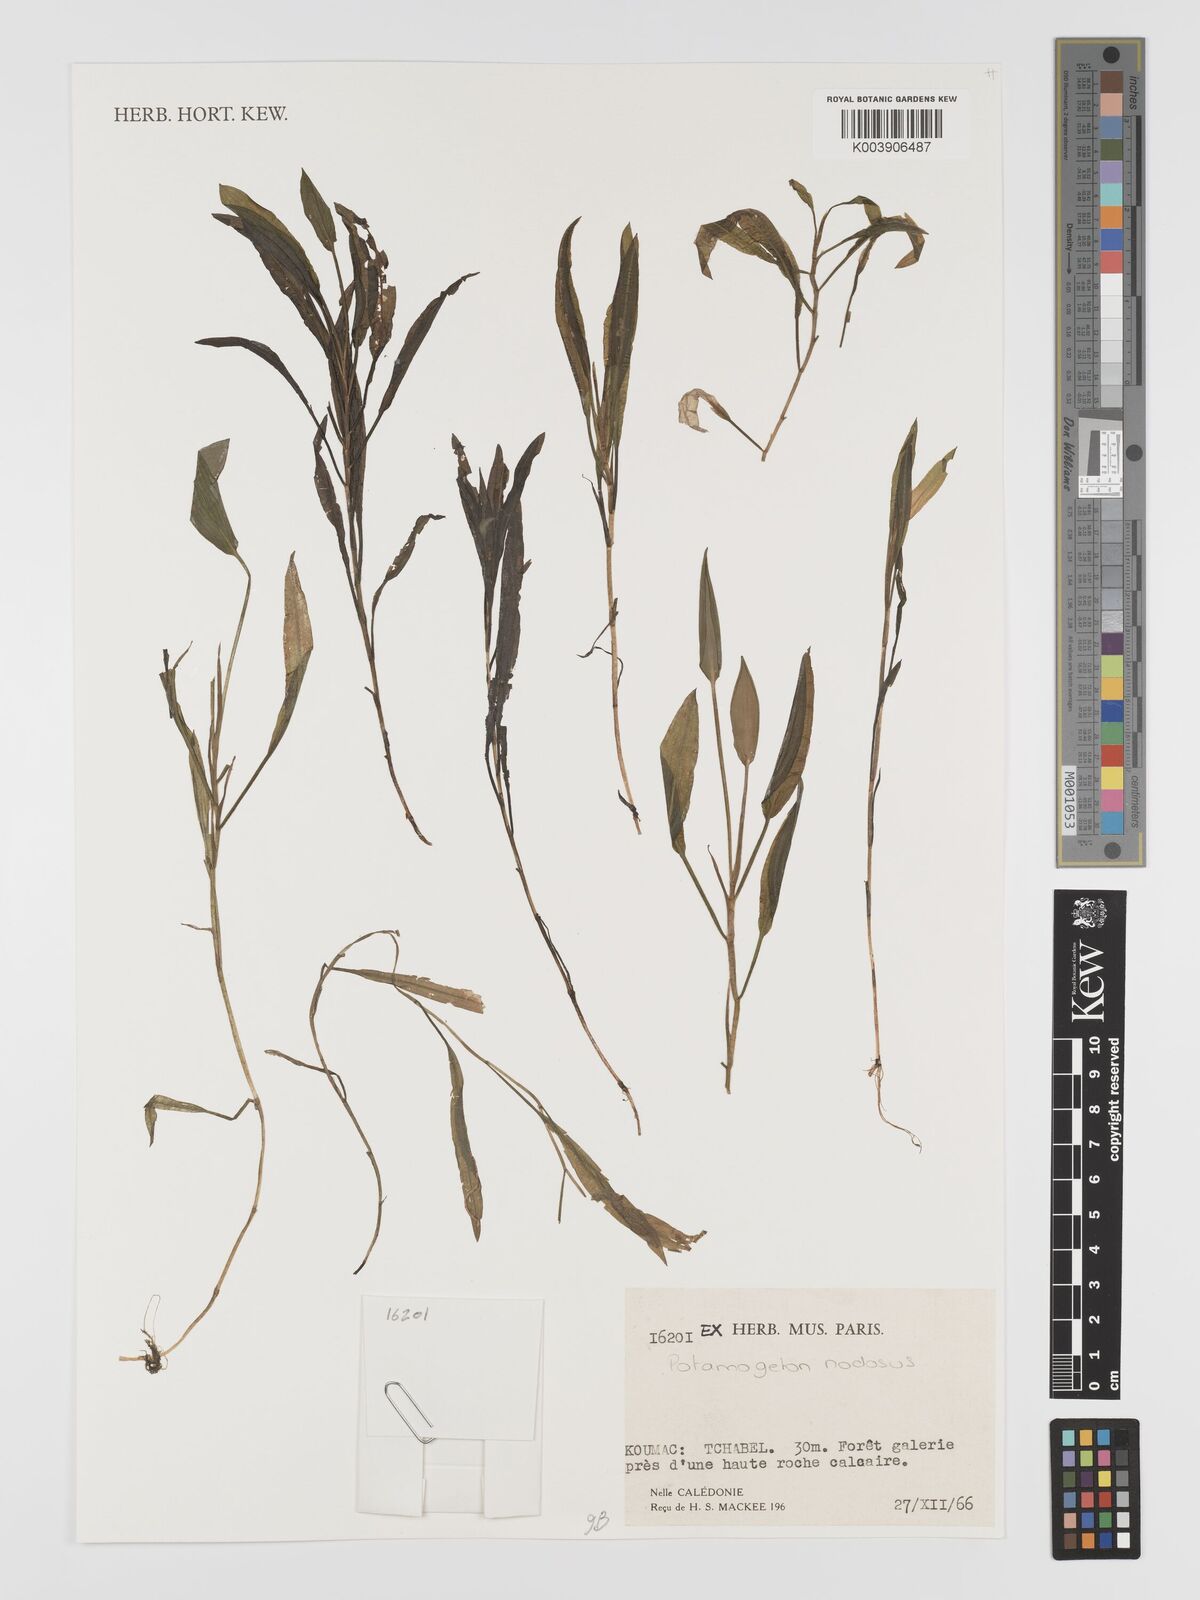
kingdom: Plantae
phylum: Tracheophyta
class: Liliopsida
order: Alismatales
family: Potamogetonaceae
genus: Potamogeton
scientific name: Potamogeton nodosus
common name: Loddon pondweed
